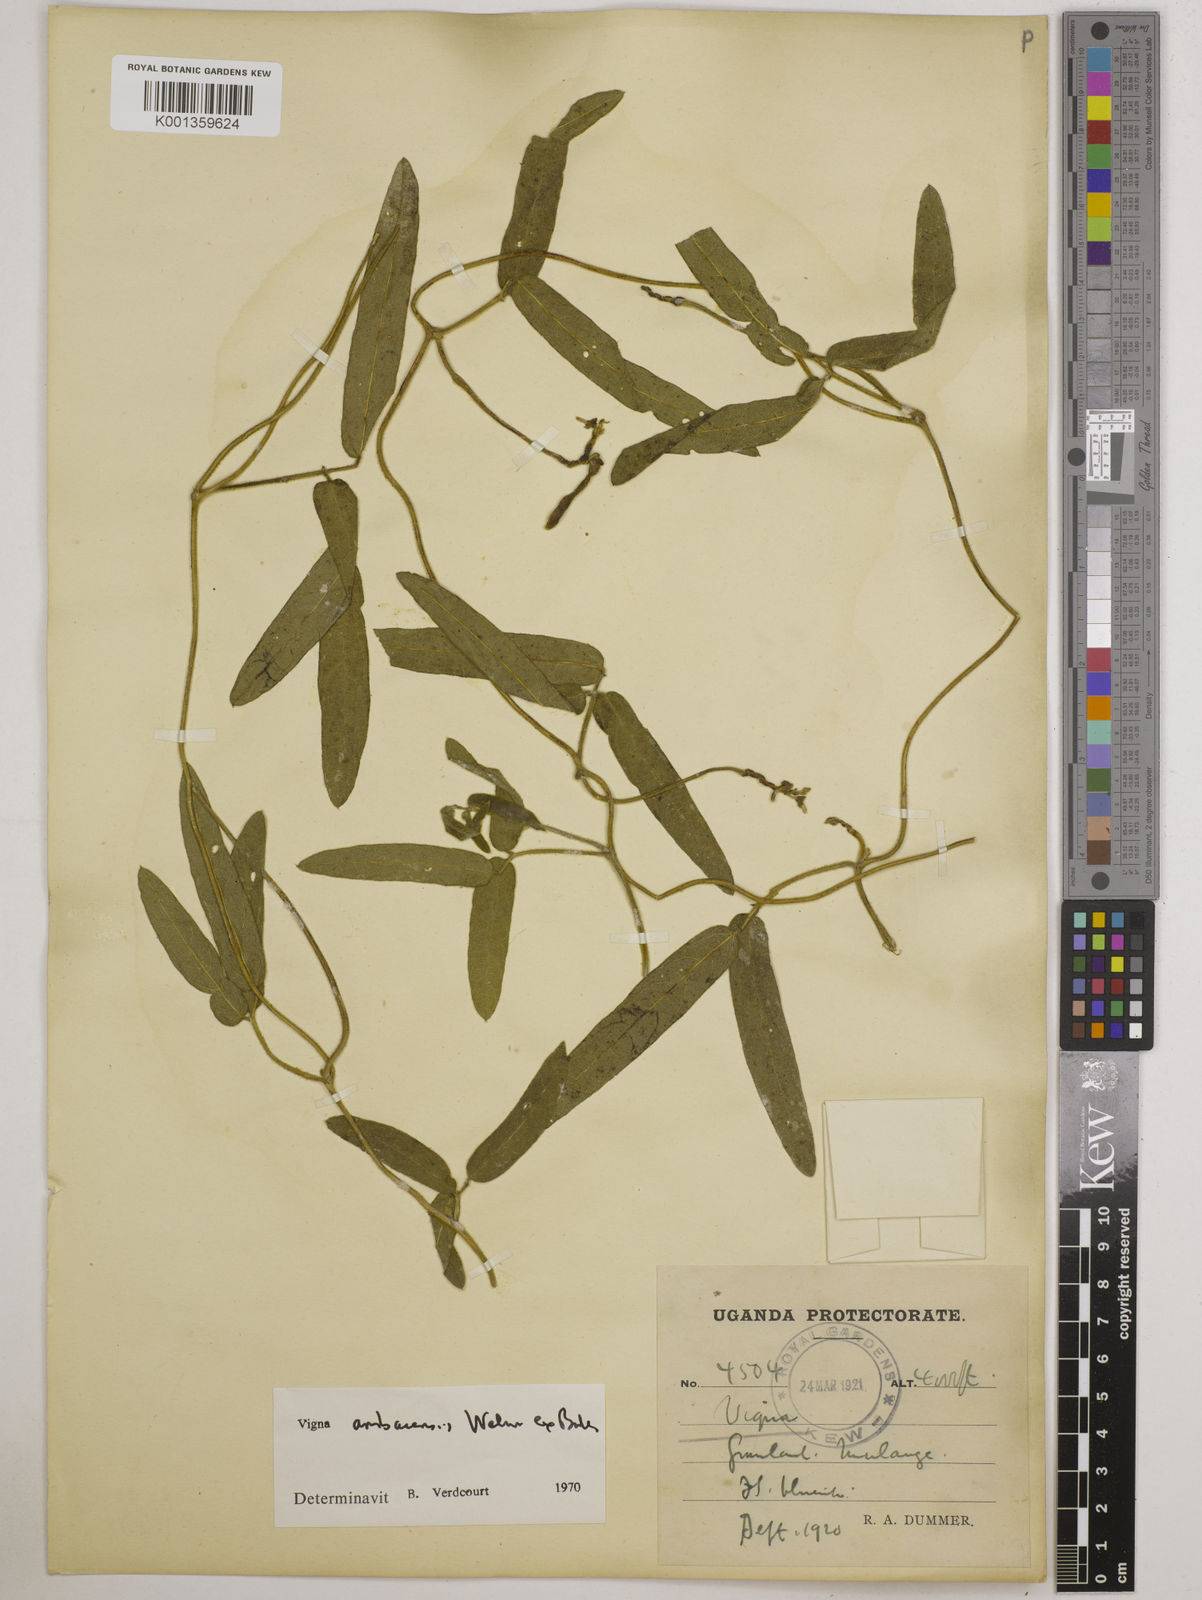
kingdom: Plantae
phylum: Tracheophyta
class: Magnoliopsida
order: Fabales
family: Fabaceae
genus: Vigna
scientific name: Vigna ambacensis
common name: Tsarkiyan zomo
